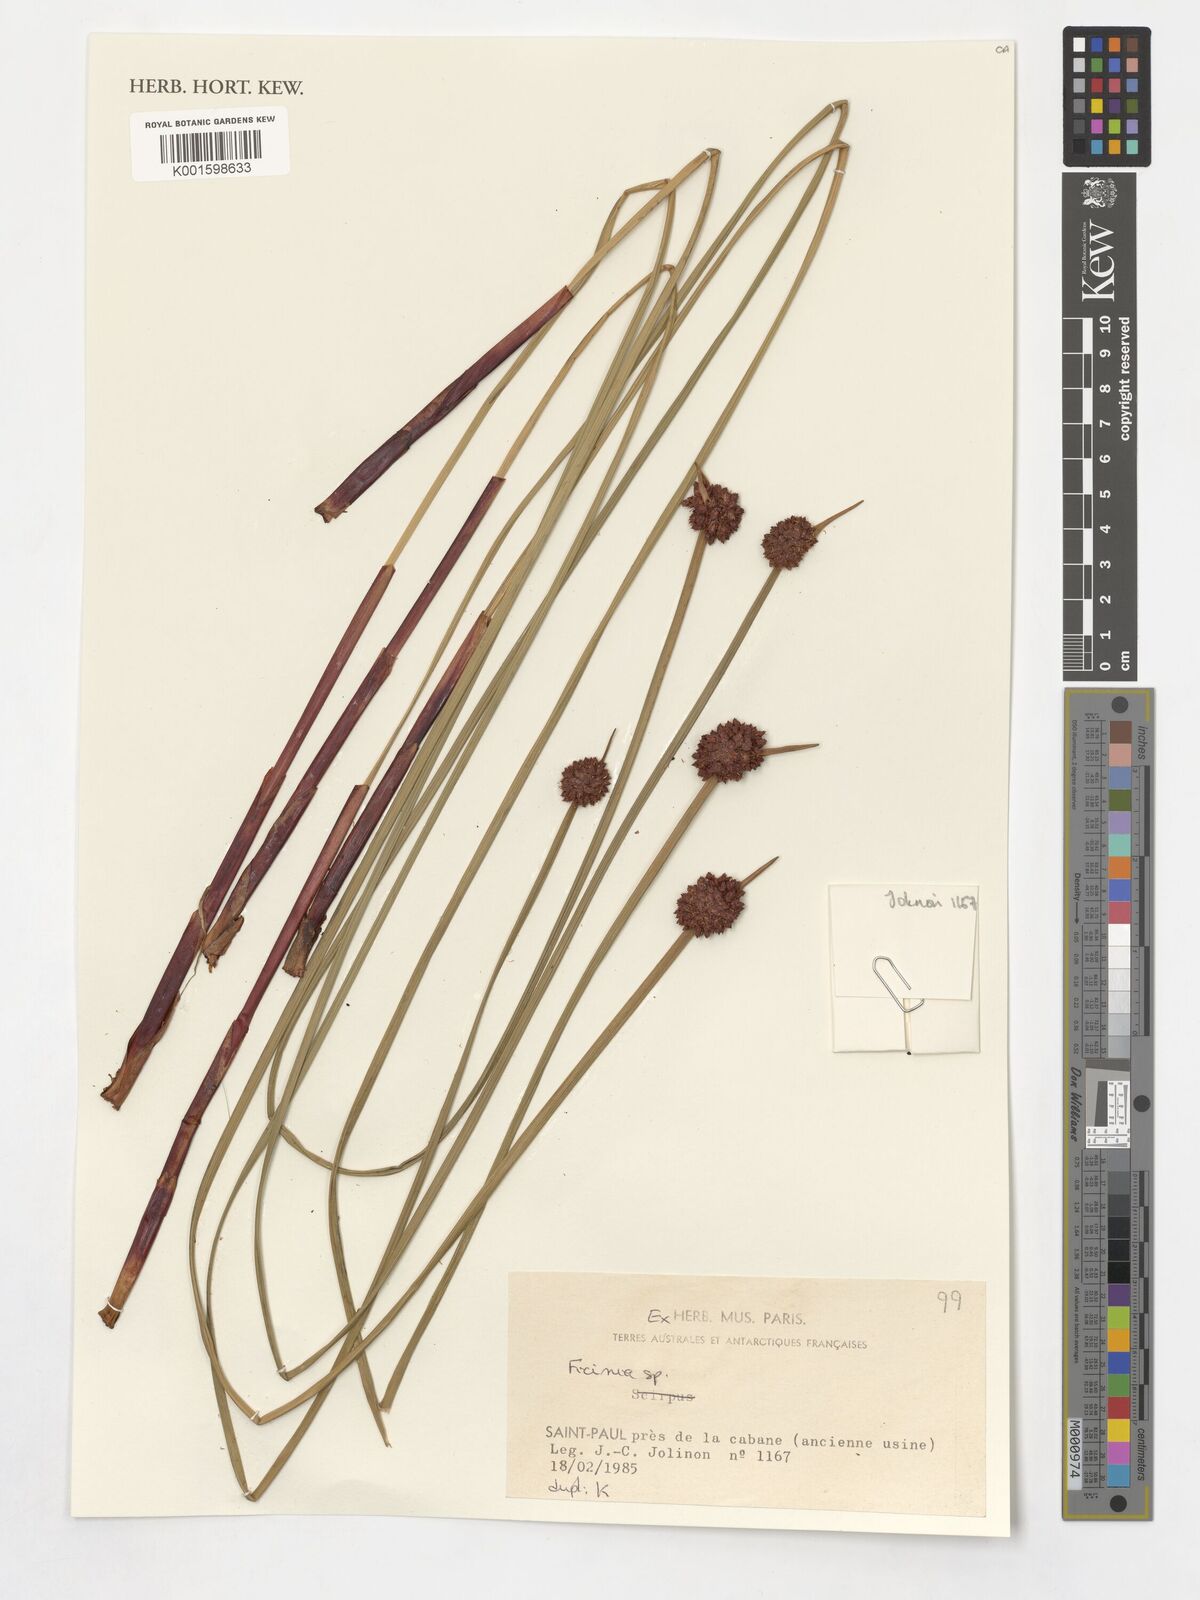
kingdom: Plantae
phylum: Tracheophyta
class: Liliopsida
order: Poales
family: Cyperaceae
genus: Ficinia
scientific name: Ficinia
